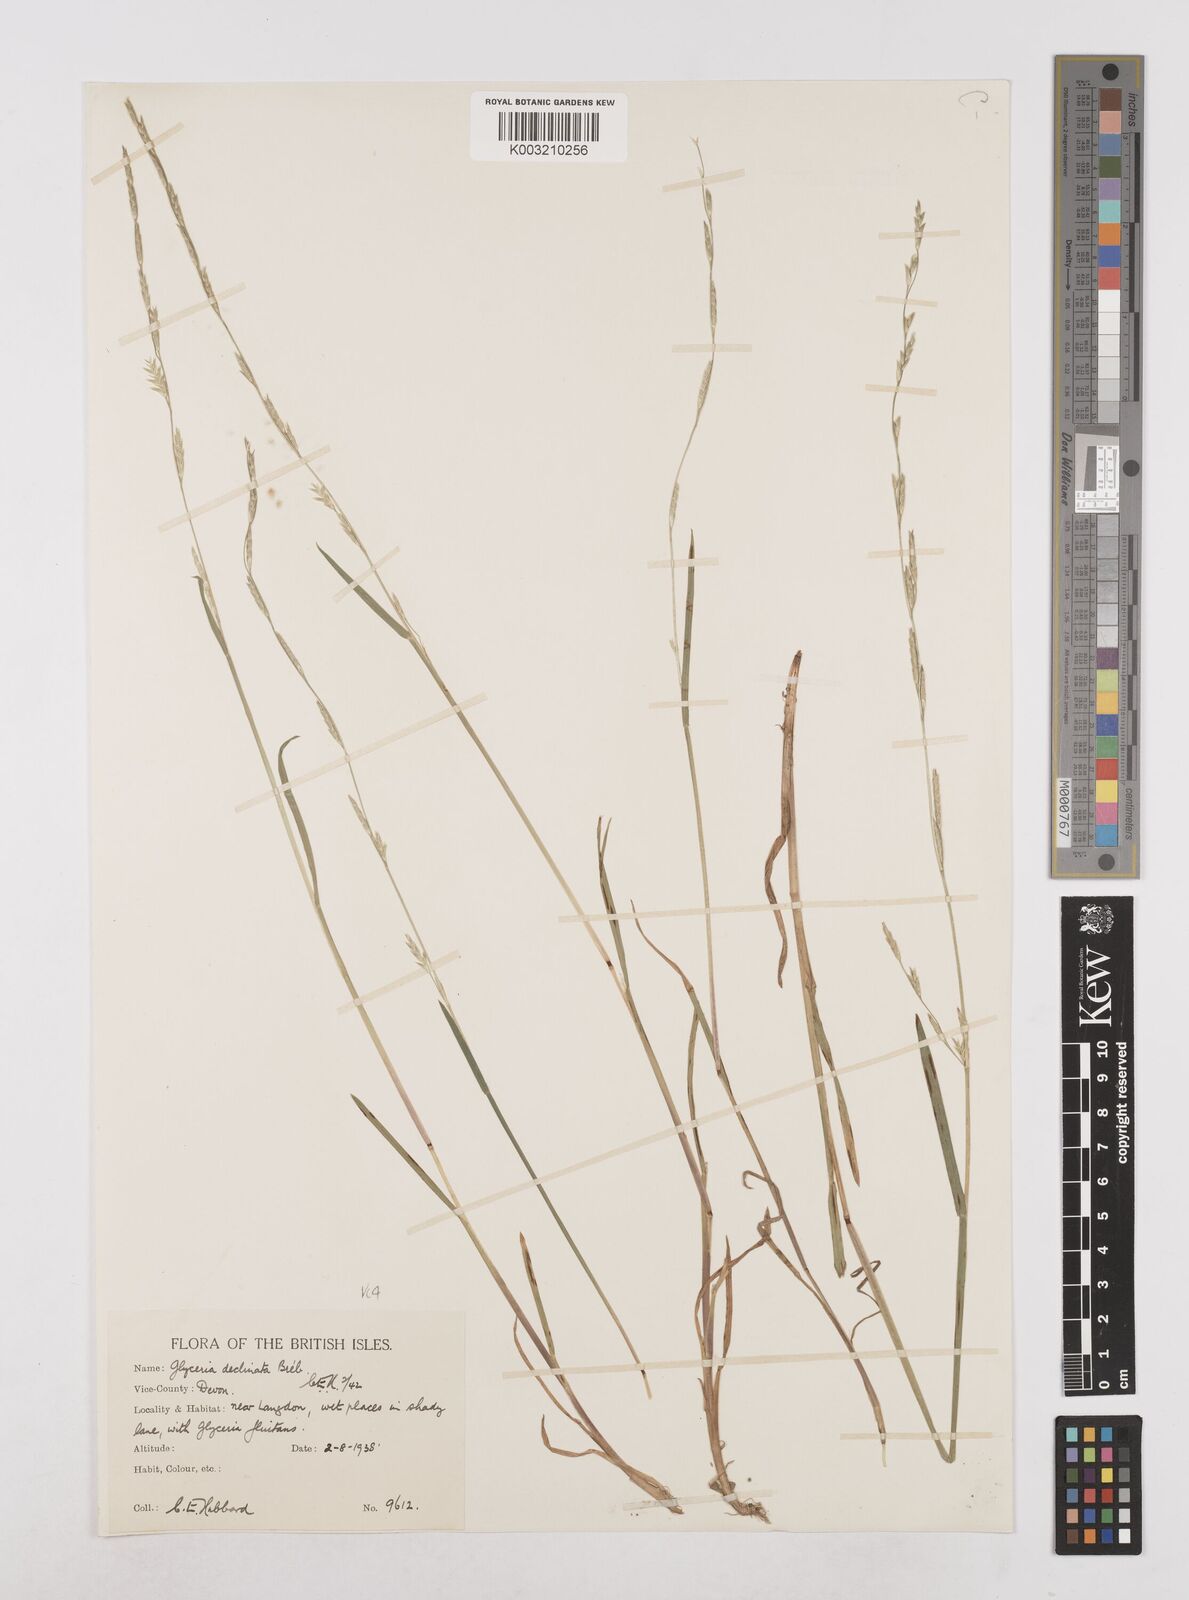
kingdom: Plantae
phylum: Tracheophyta
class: Liliopsida
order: Poales
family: Poaceae
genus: Glyceria
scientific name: Glyceria declinata
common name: Small sweet-grass
